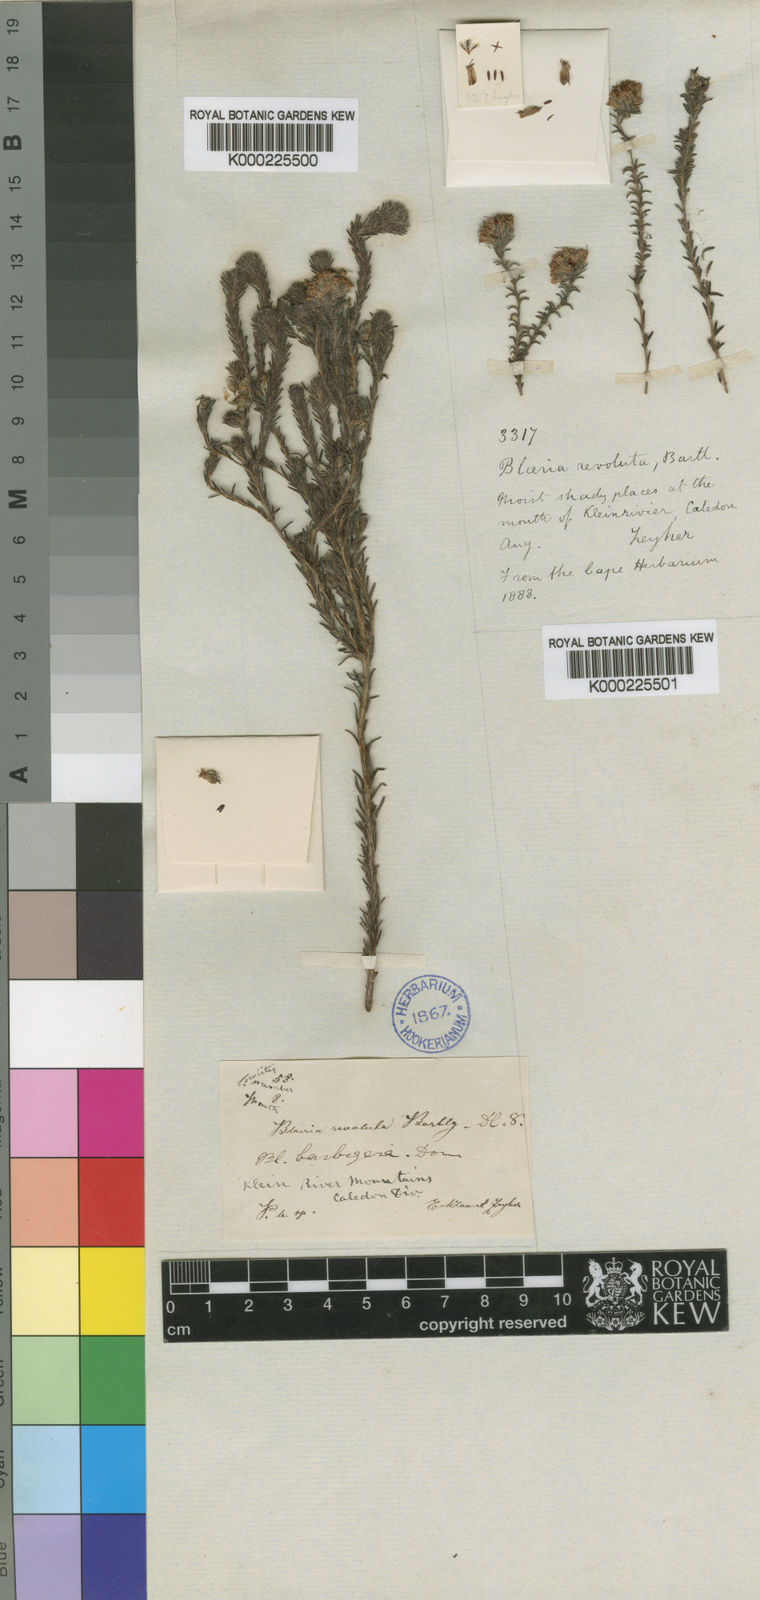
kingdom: Plantae
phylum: Tracheophyta
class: Magnoliopsida
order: Ericales
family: Ericaceae
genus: Erica
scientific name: Erica barbigeroides
